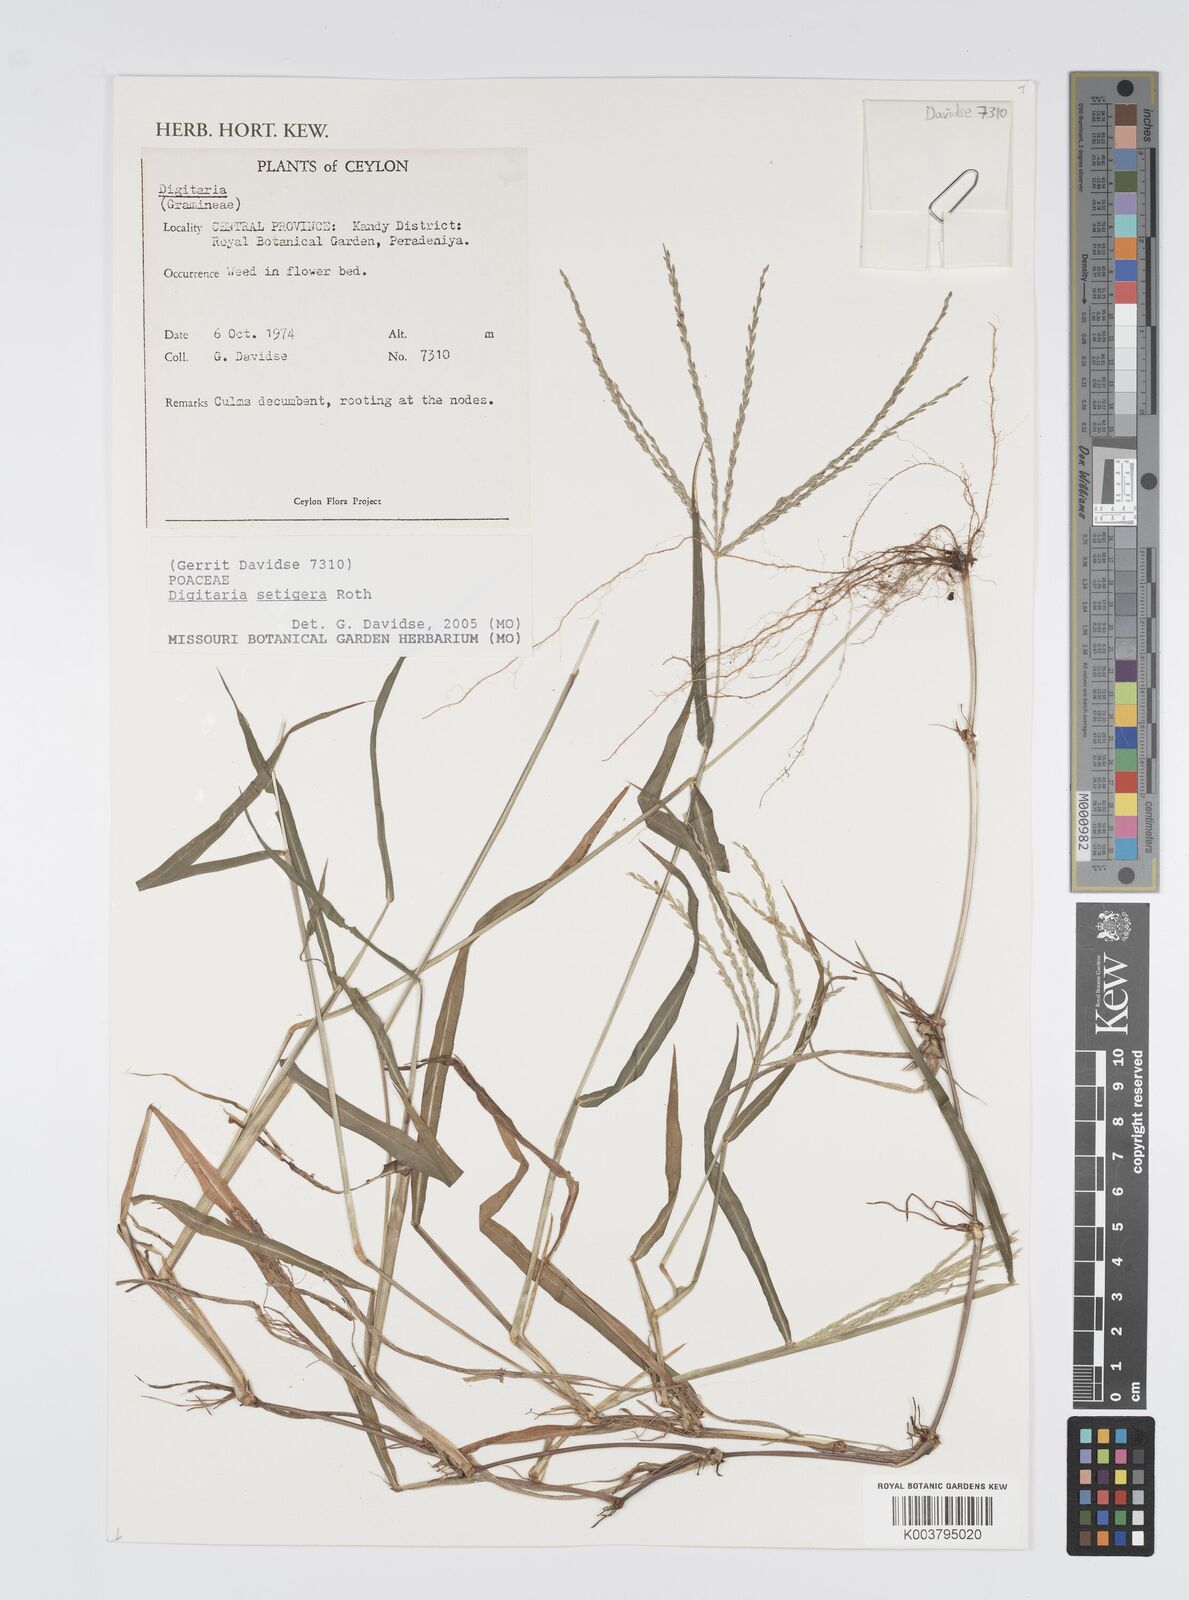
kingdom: Plantae
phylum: Tracheophyta
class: Liliopsida
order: Poales
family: Poaceae
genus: Digitaria
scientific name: Digitaria setigera
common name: East indian crabgrass
